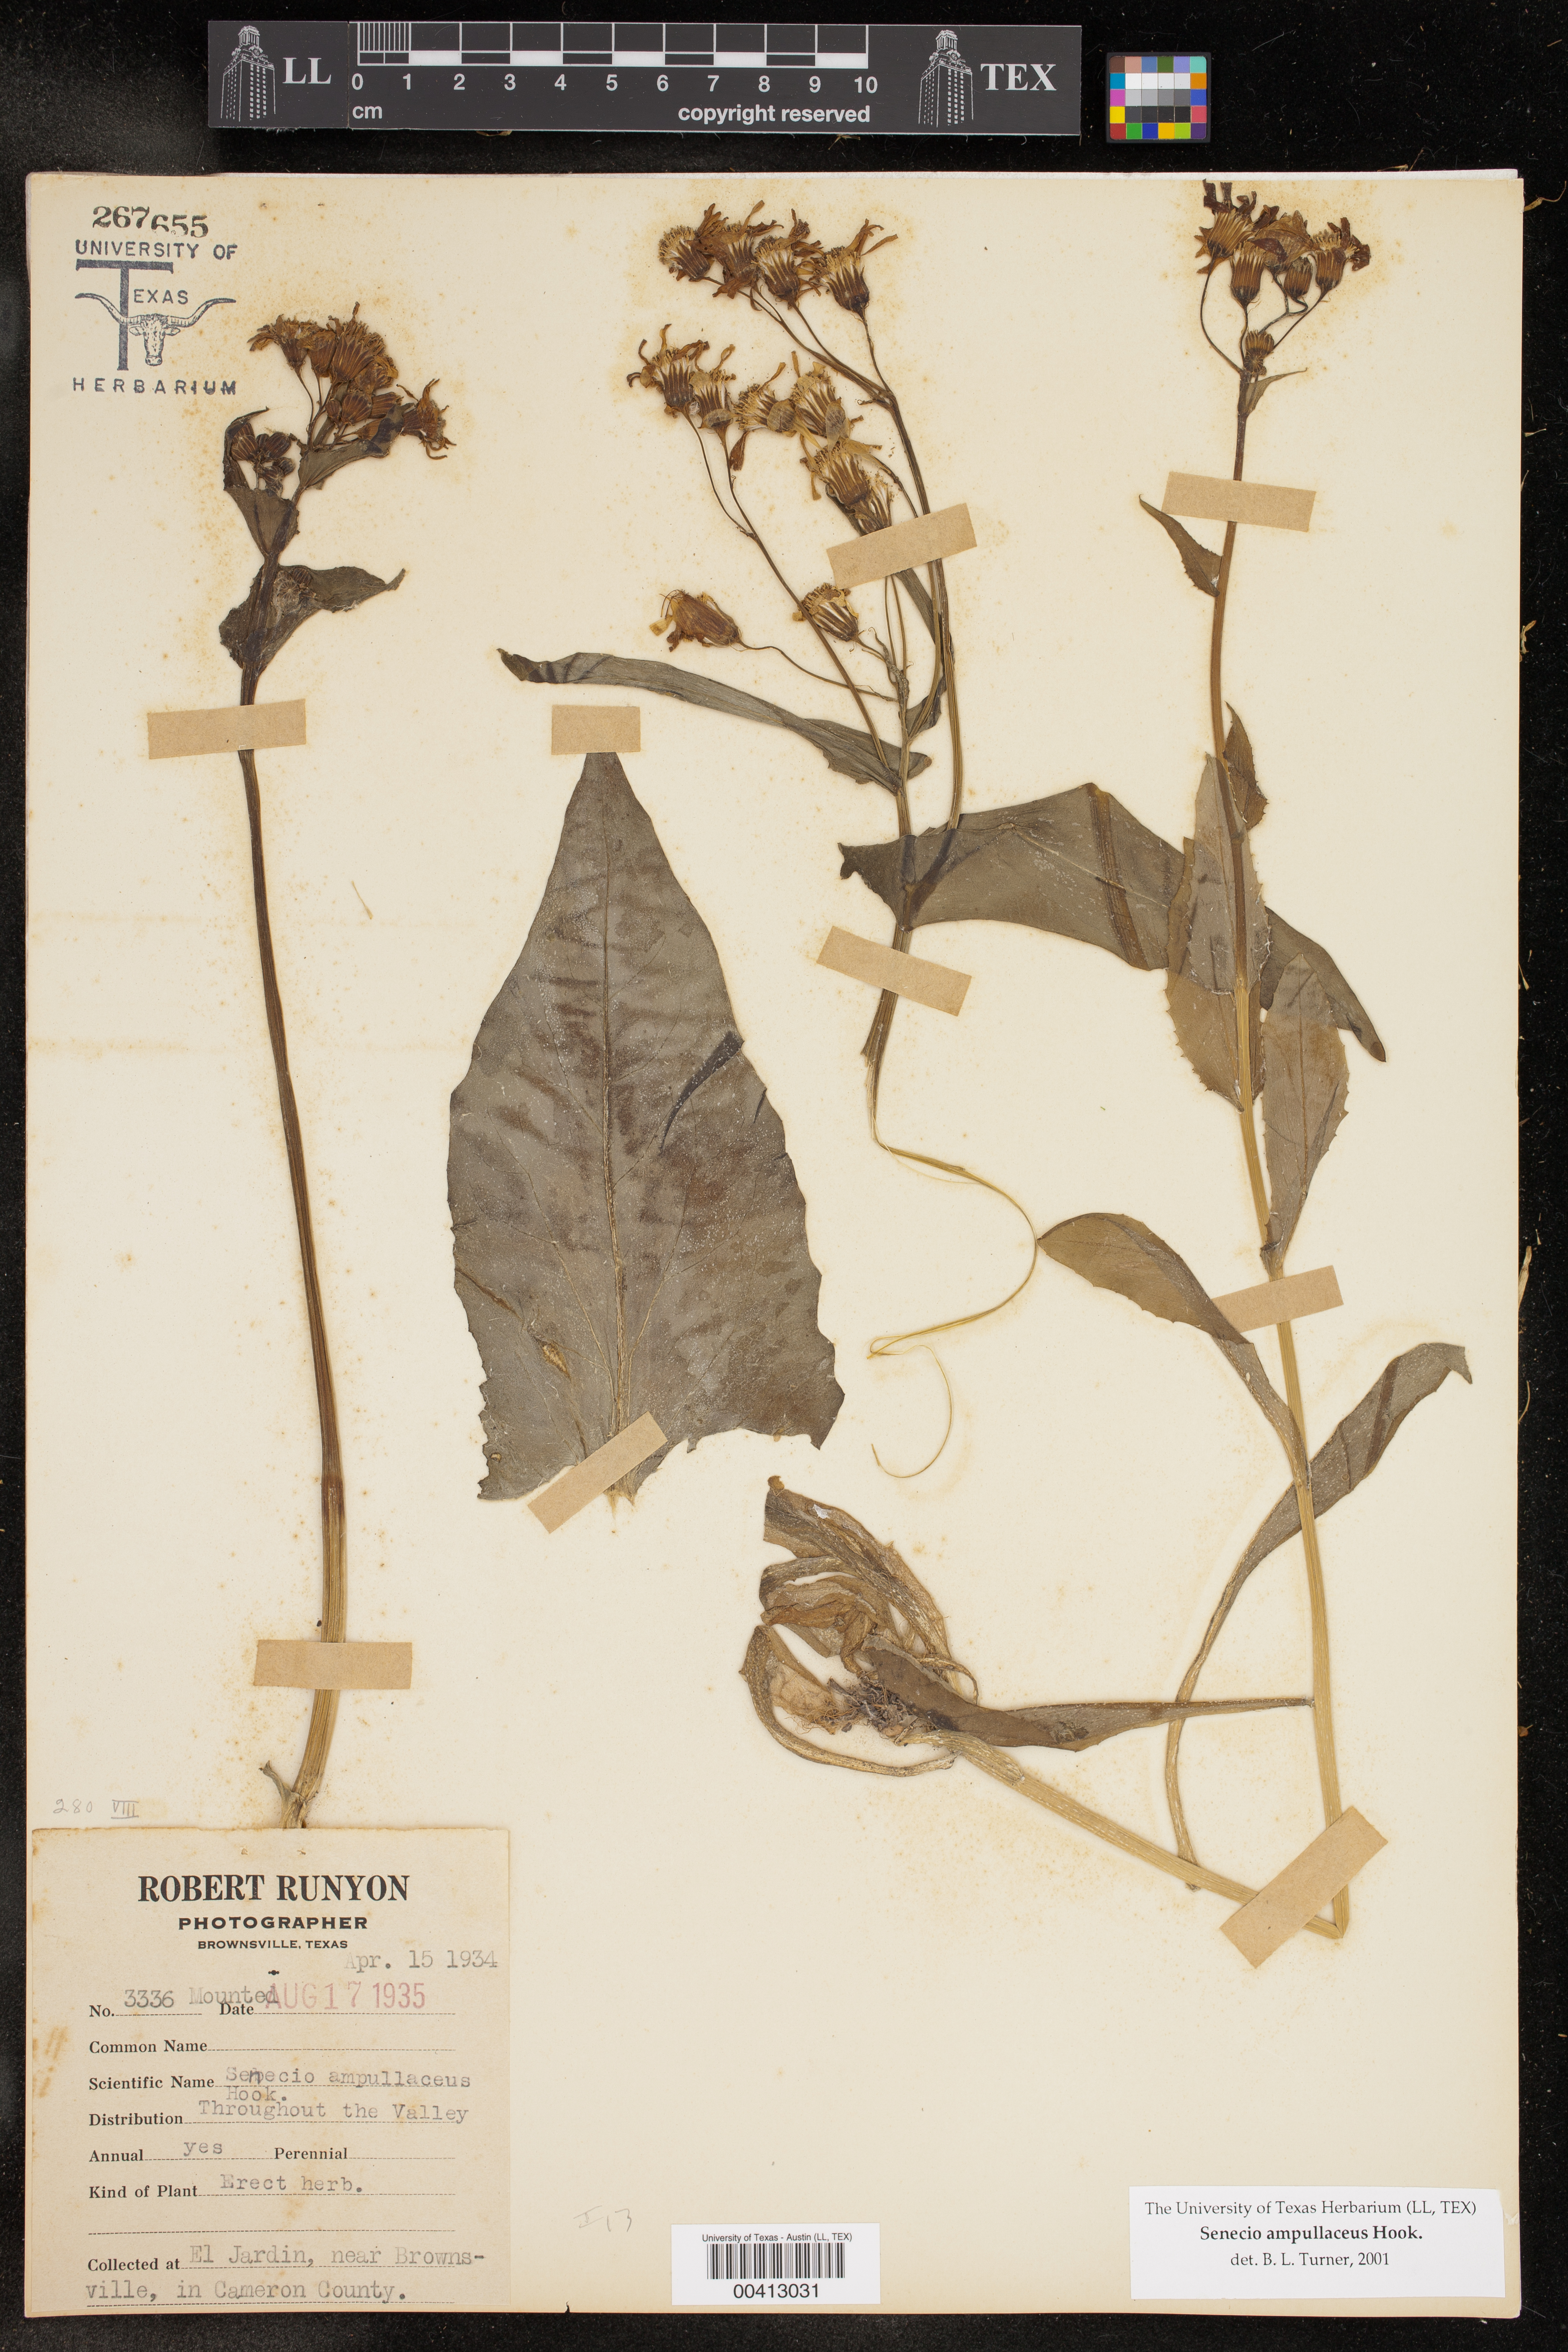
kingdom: Plantae
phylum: Tracheophyta
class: Magnoliopsida
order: Asterales
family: Asteraceae
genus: Senecio
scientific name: Senecio ampullaceus
